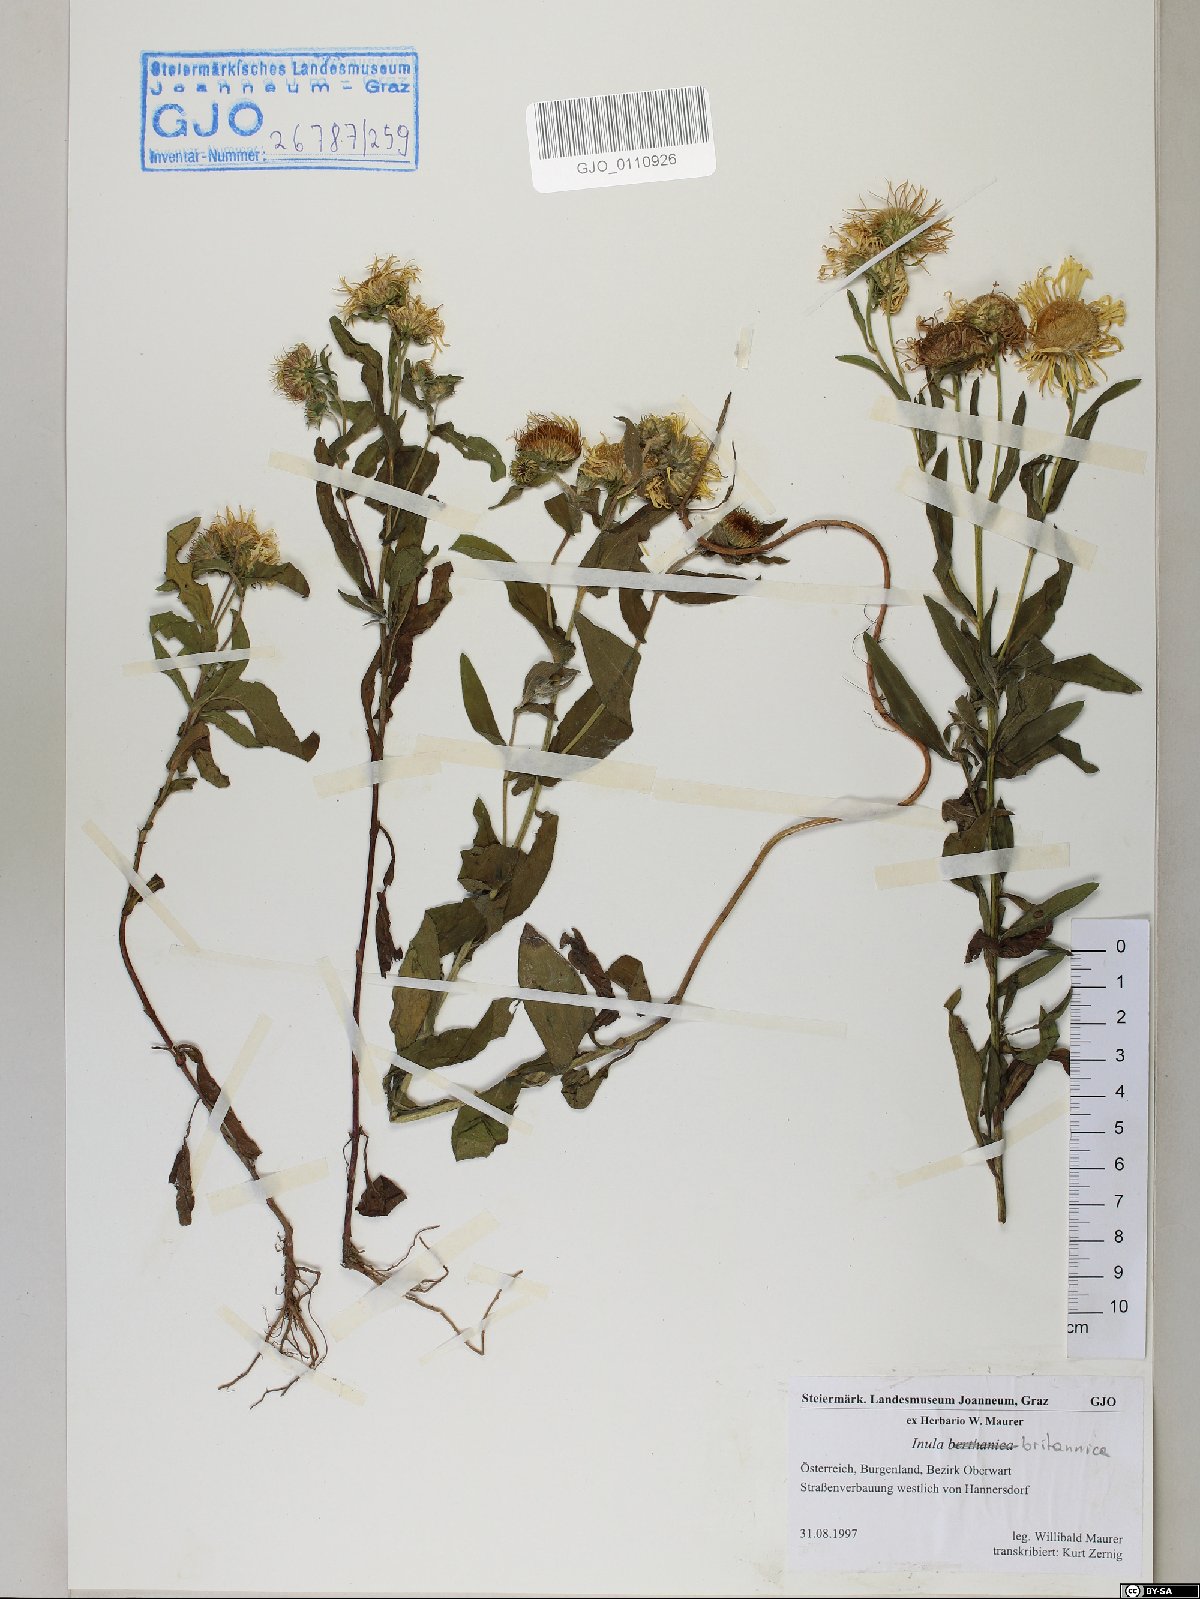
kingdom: Plantae
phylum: Tracheophyta
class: Magnoliopsida
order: Asterales
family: Asteraceae
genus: Pentanema
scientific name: Pentanema britannicum
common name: British elecampane
